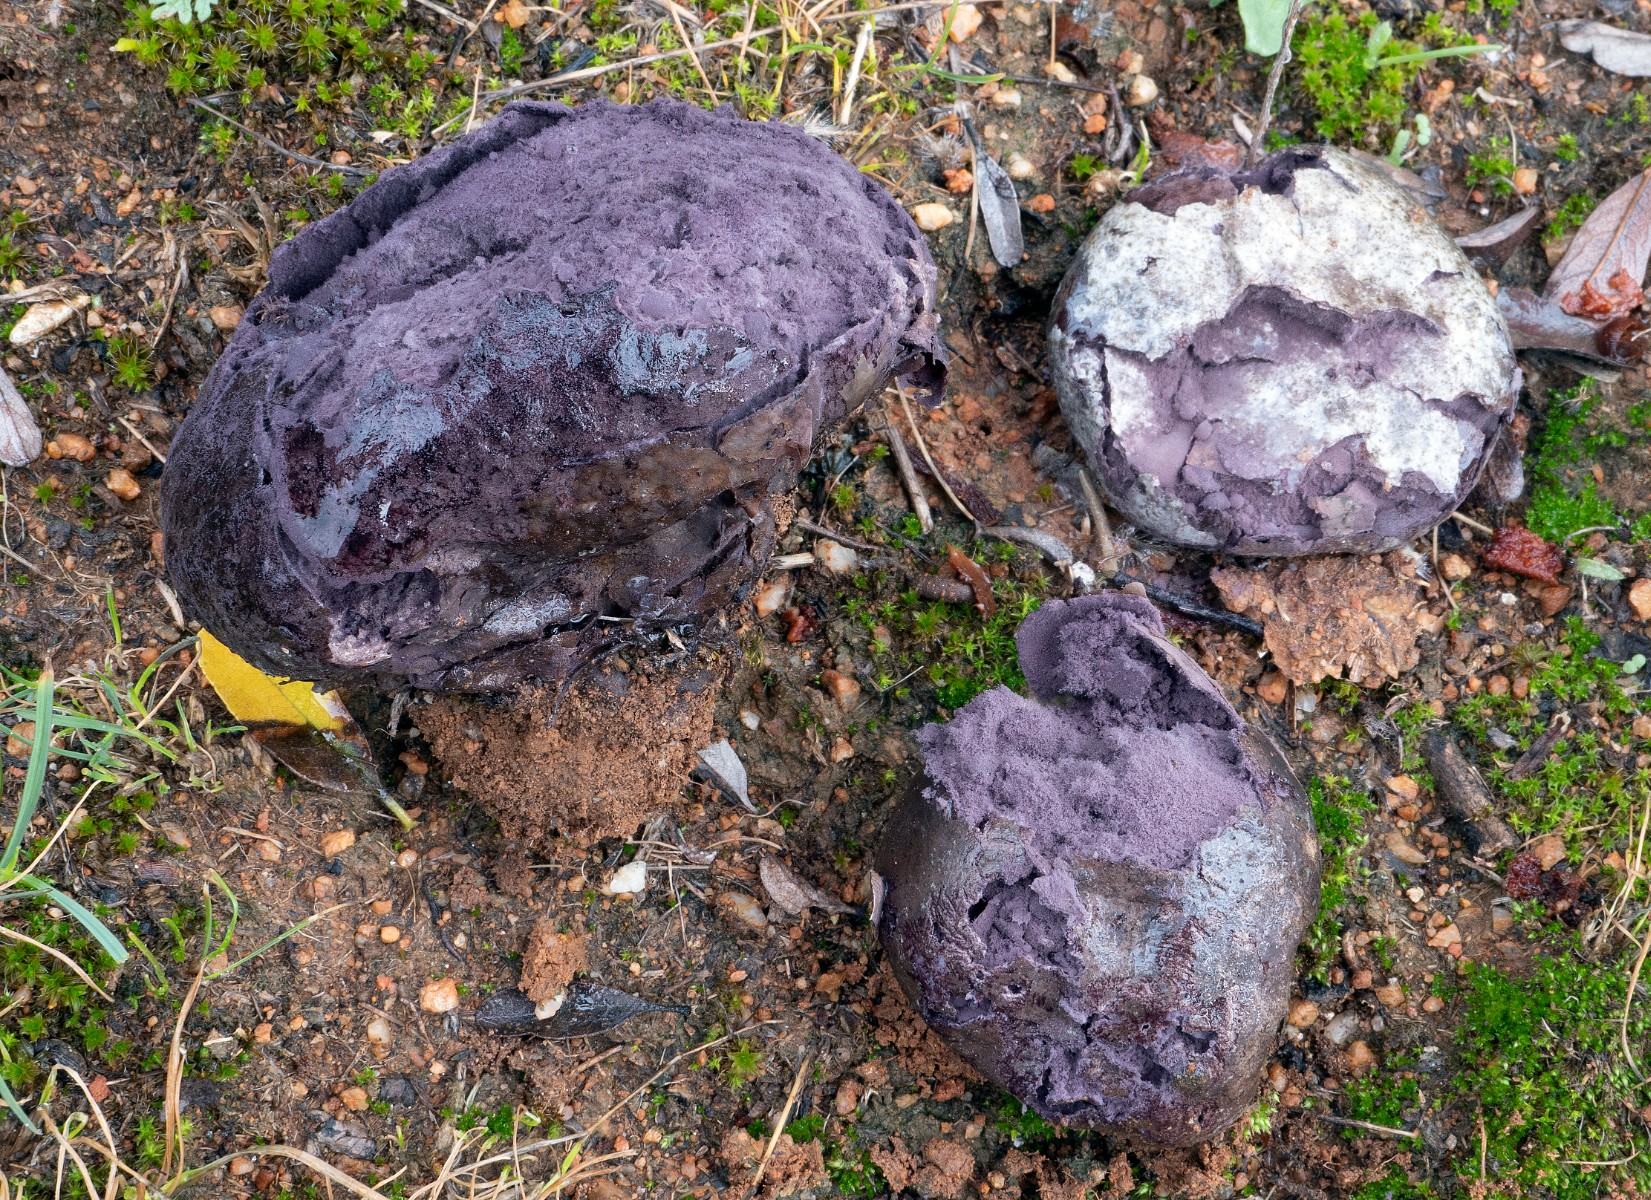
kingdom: Fungi
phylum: Basidiomycota
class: Agaricomycetes
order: Agaricales
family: Lycoperdaceae
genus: Calvatia
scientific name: Calvatia cyathiformis
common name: Purple-spored puffball
